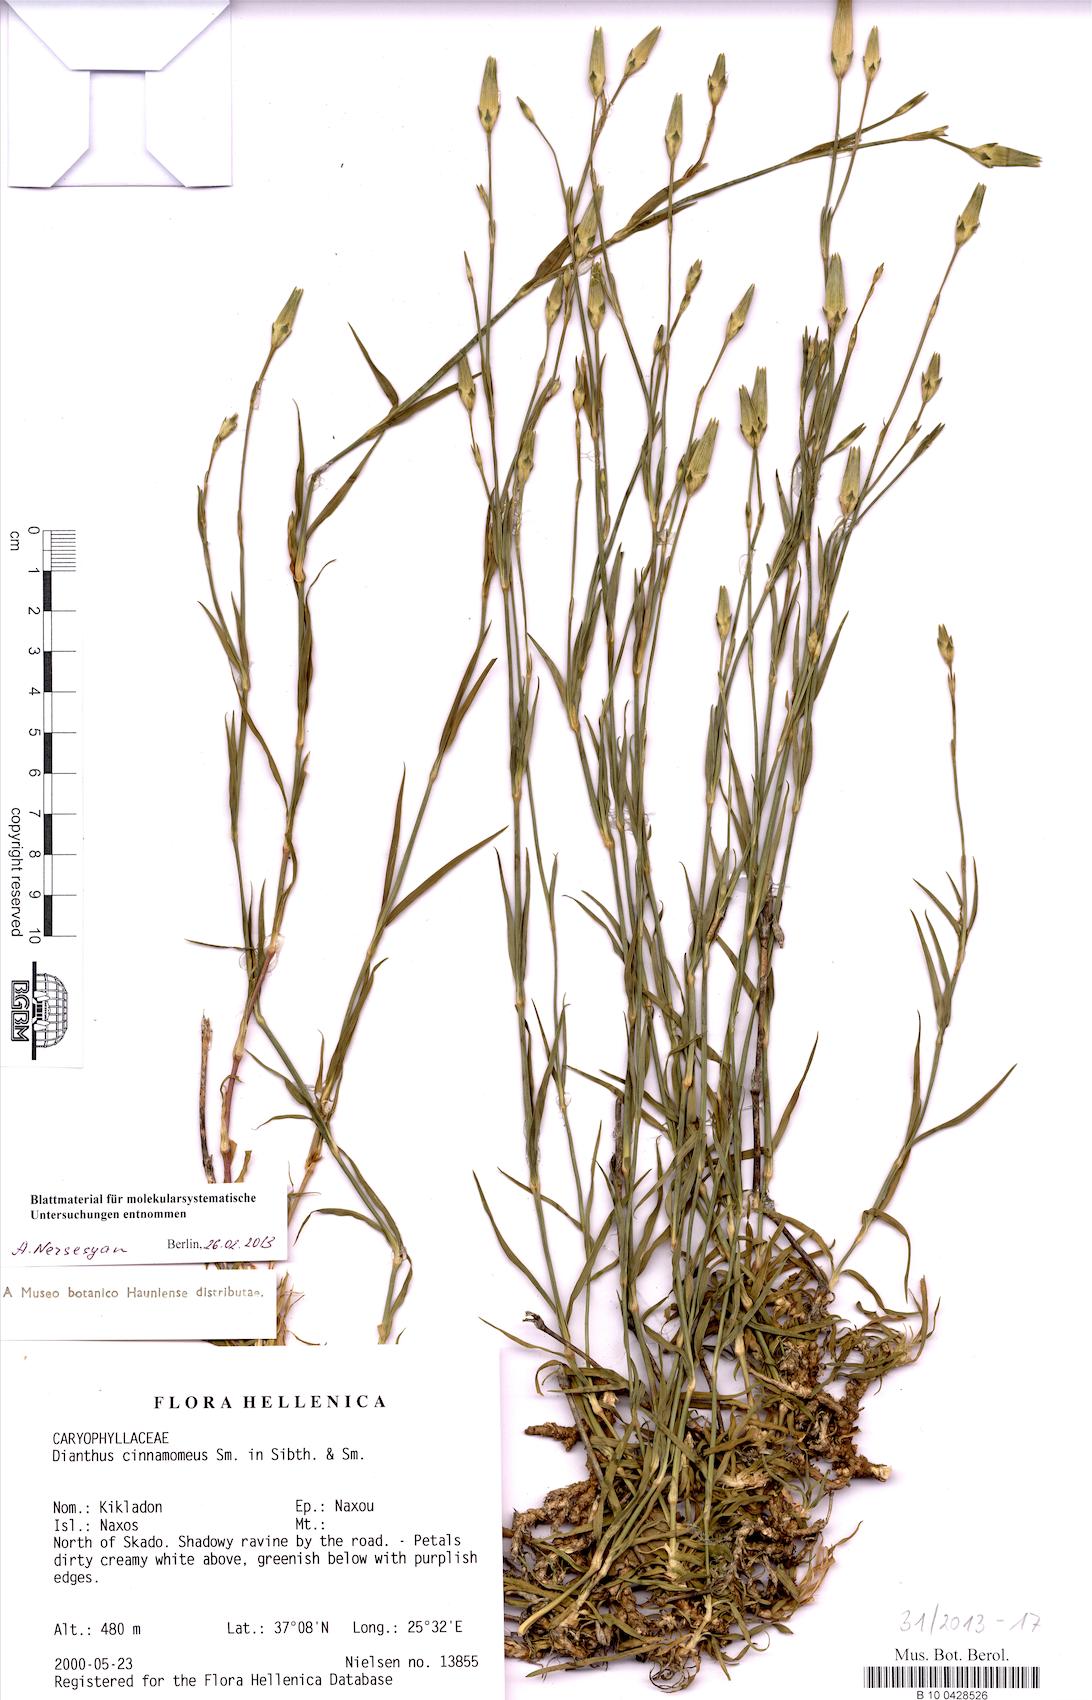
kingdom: Plantae
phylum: Tracheophyta
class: Magnoliopsida
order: Caryophyllales
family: Caryophyllaceae
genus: Dianthus
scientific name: Dianthus cinnamomeus
